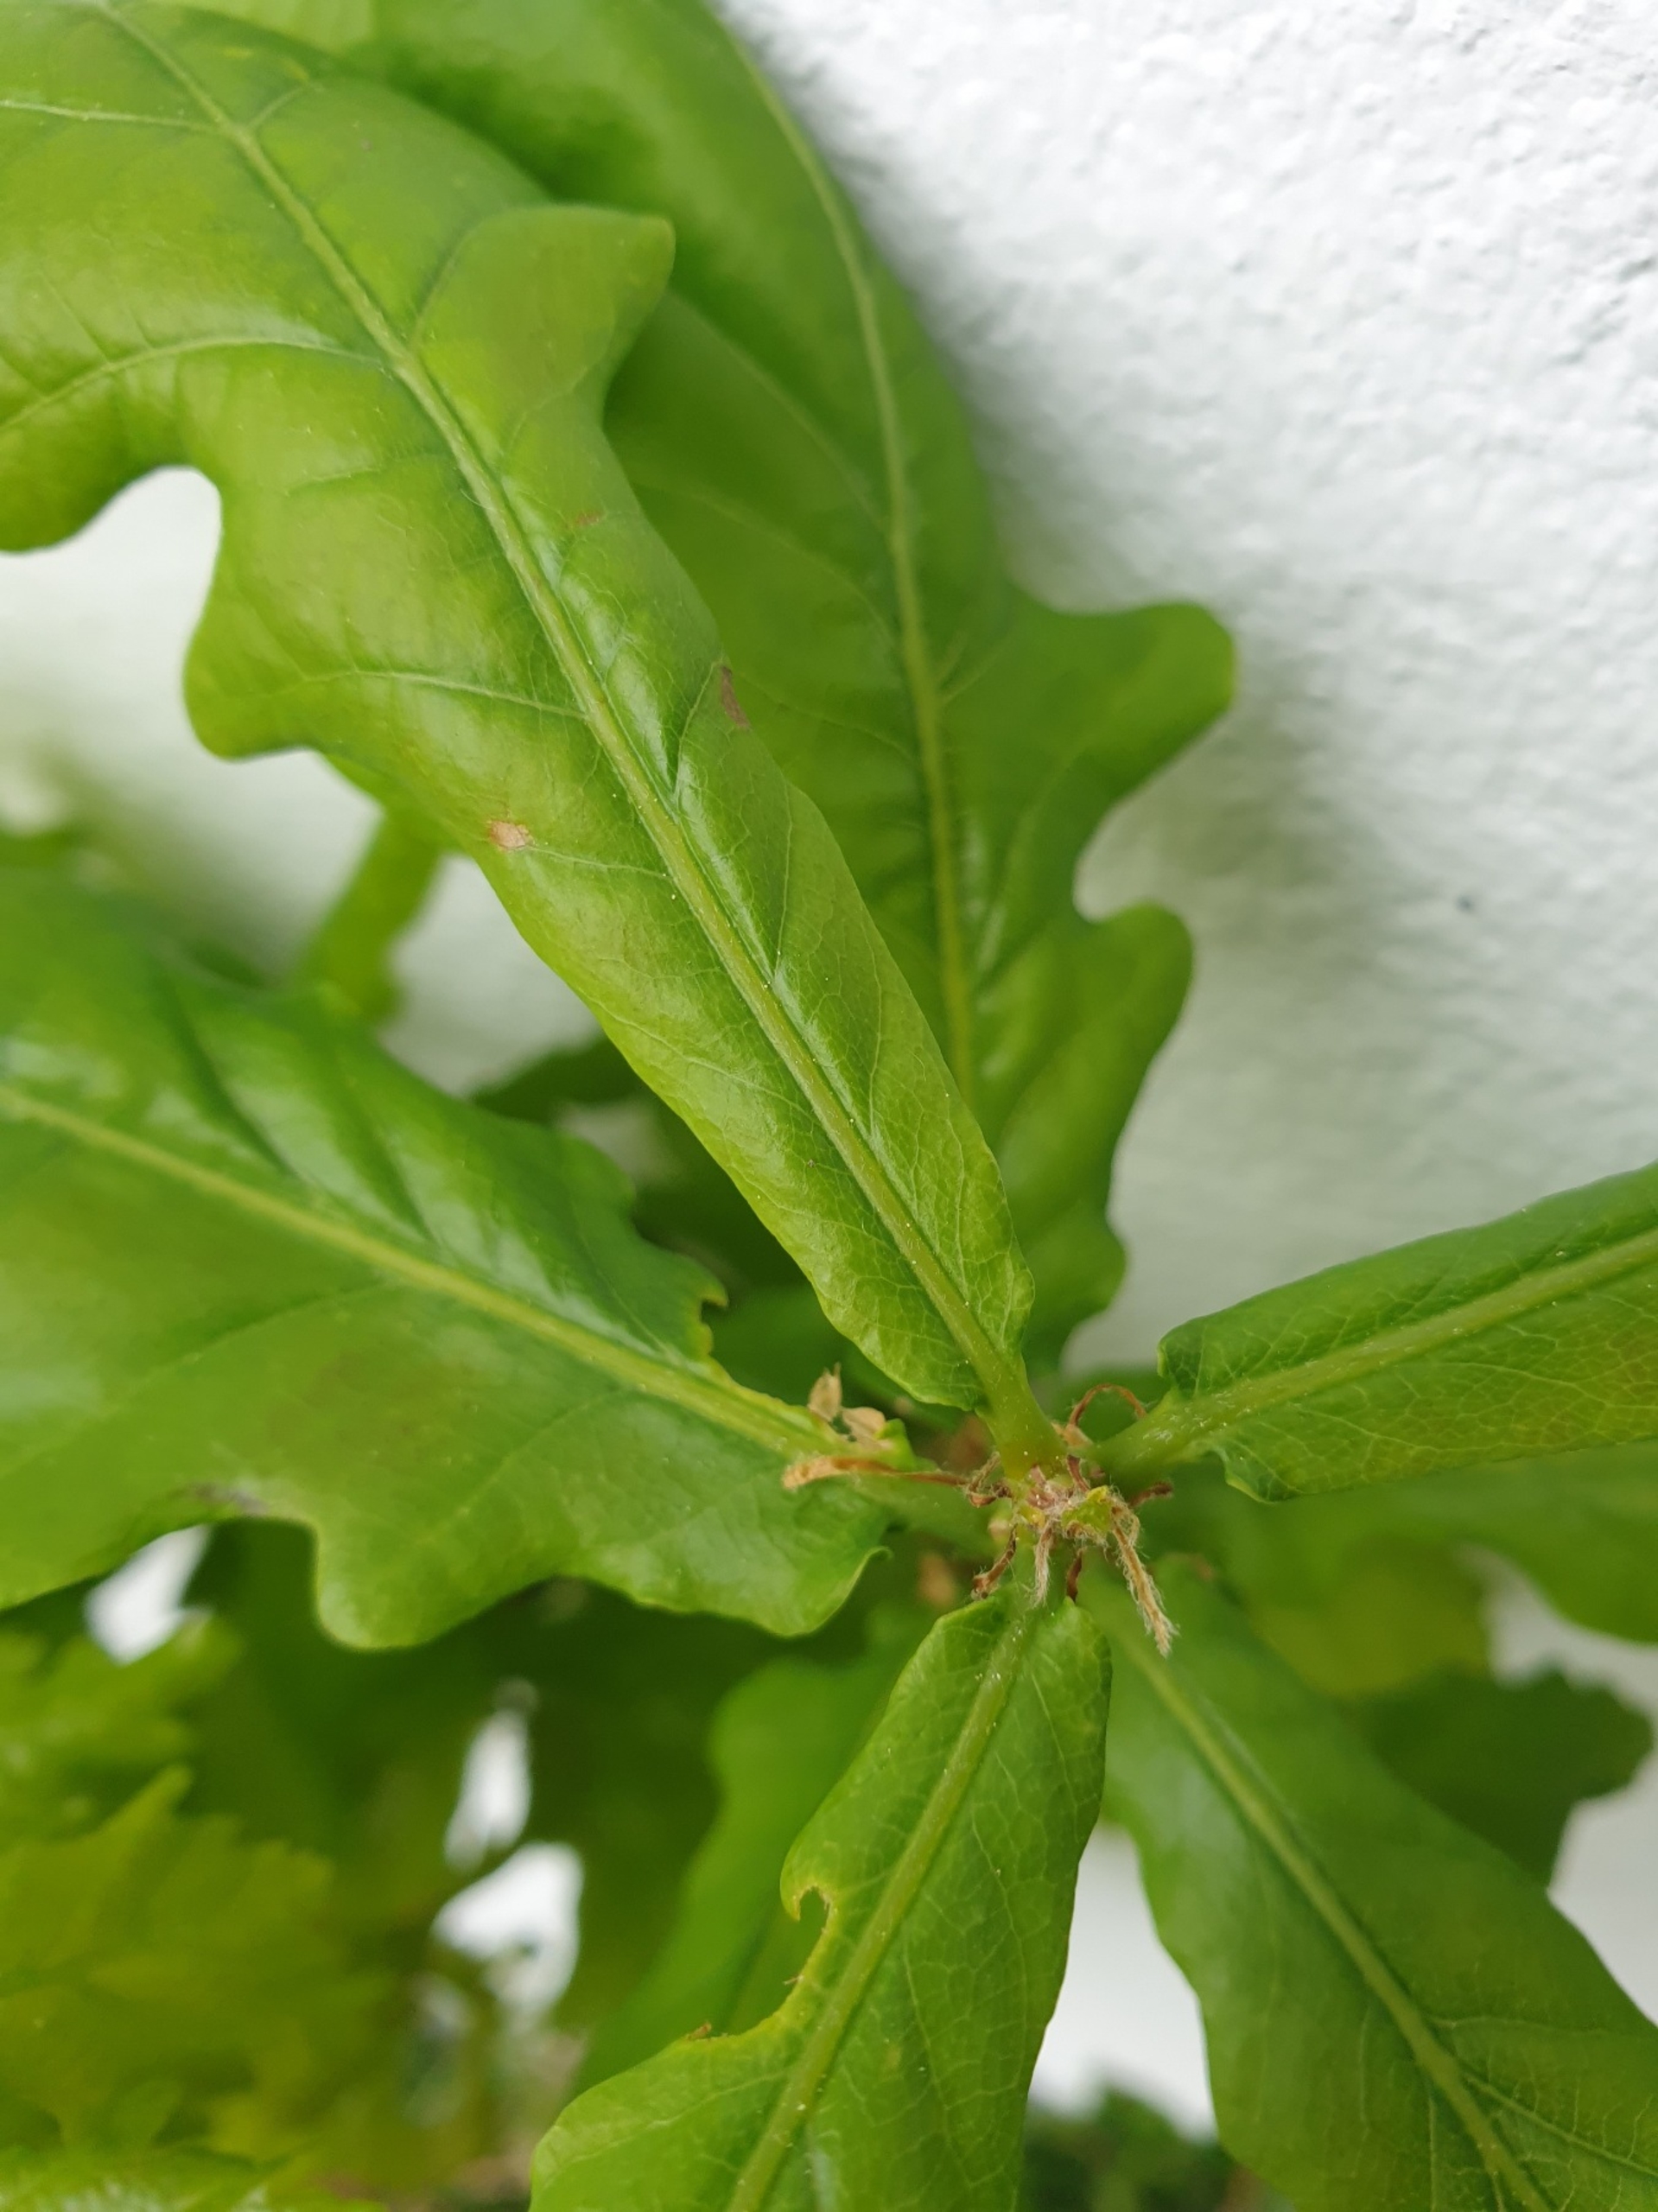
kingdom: Plantae
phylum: Tracheophyta
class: Magnoliopsida
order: Fagales
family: Fagaceae
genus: Quercus
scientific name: Quercus robur
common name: Stilk-eg/almindelig eg
